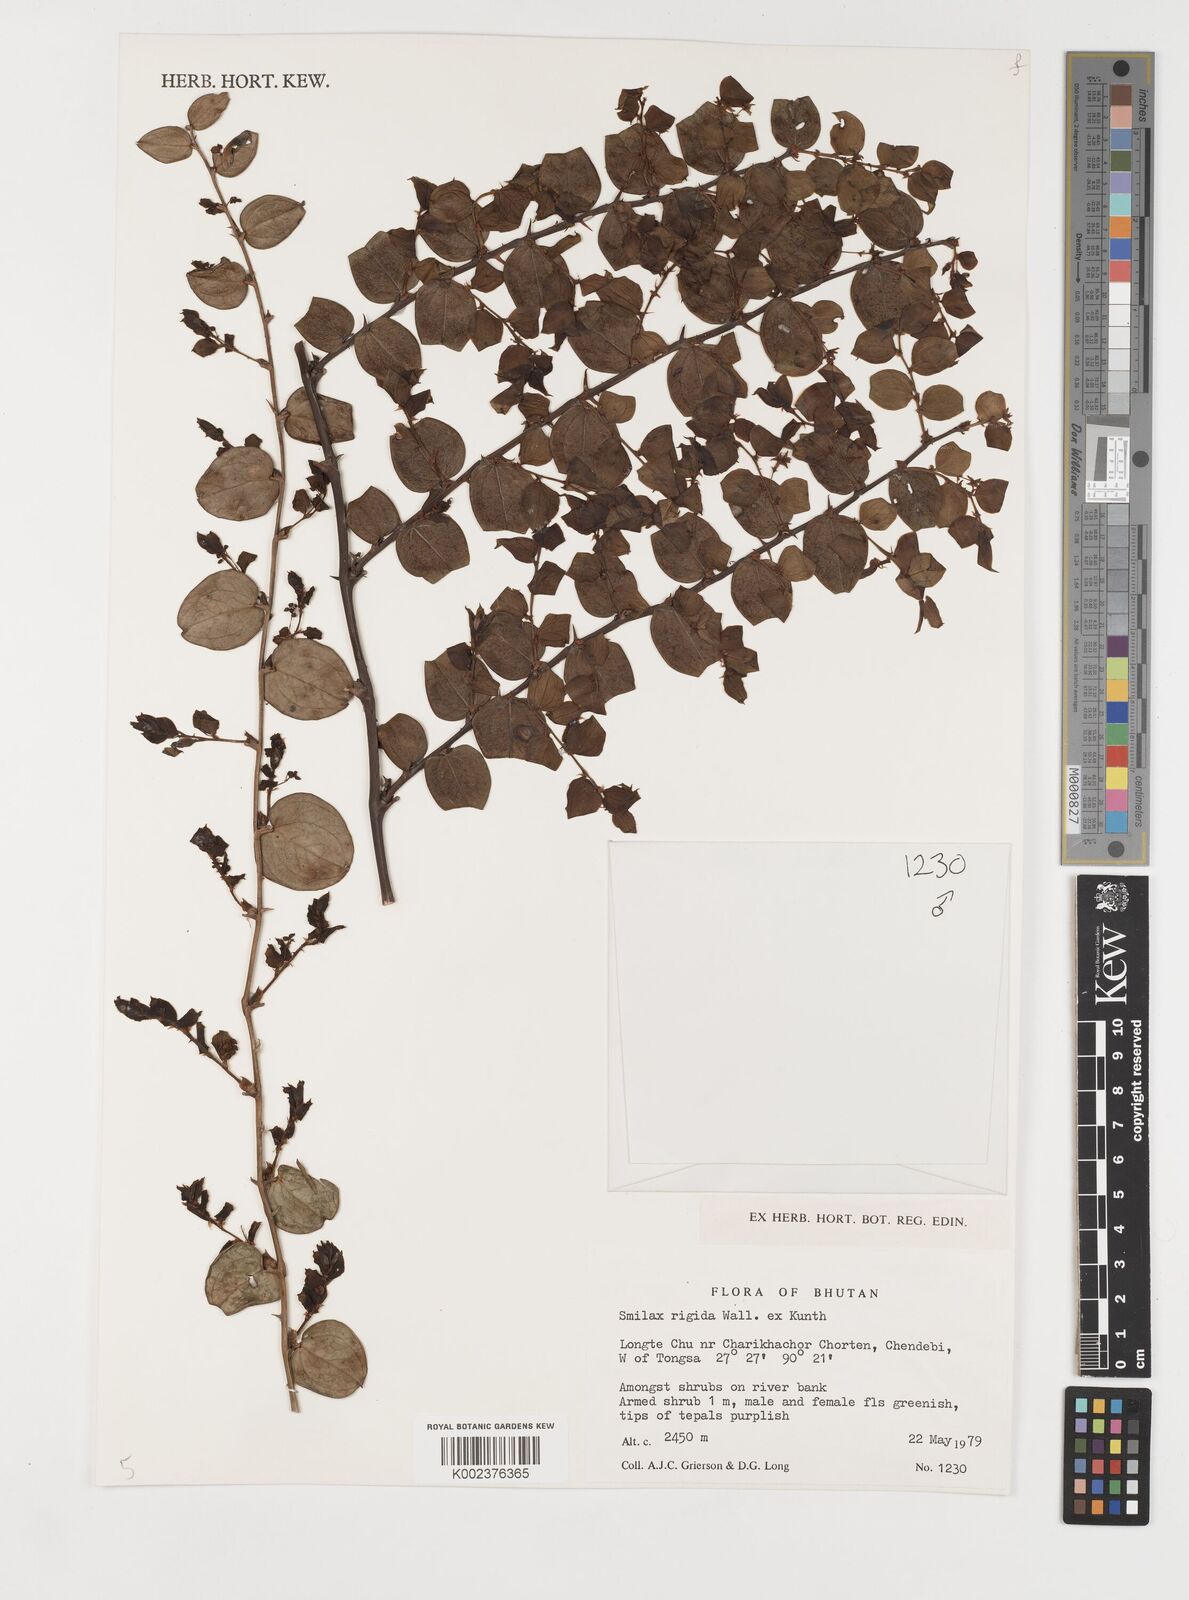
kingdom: Plantae
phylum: Tracheophyta
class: Liliopsida
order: Liliales
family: Smilacaceae
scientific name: Smilacaceae
